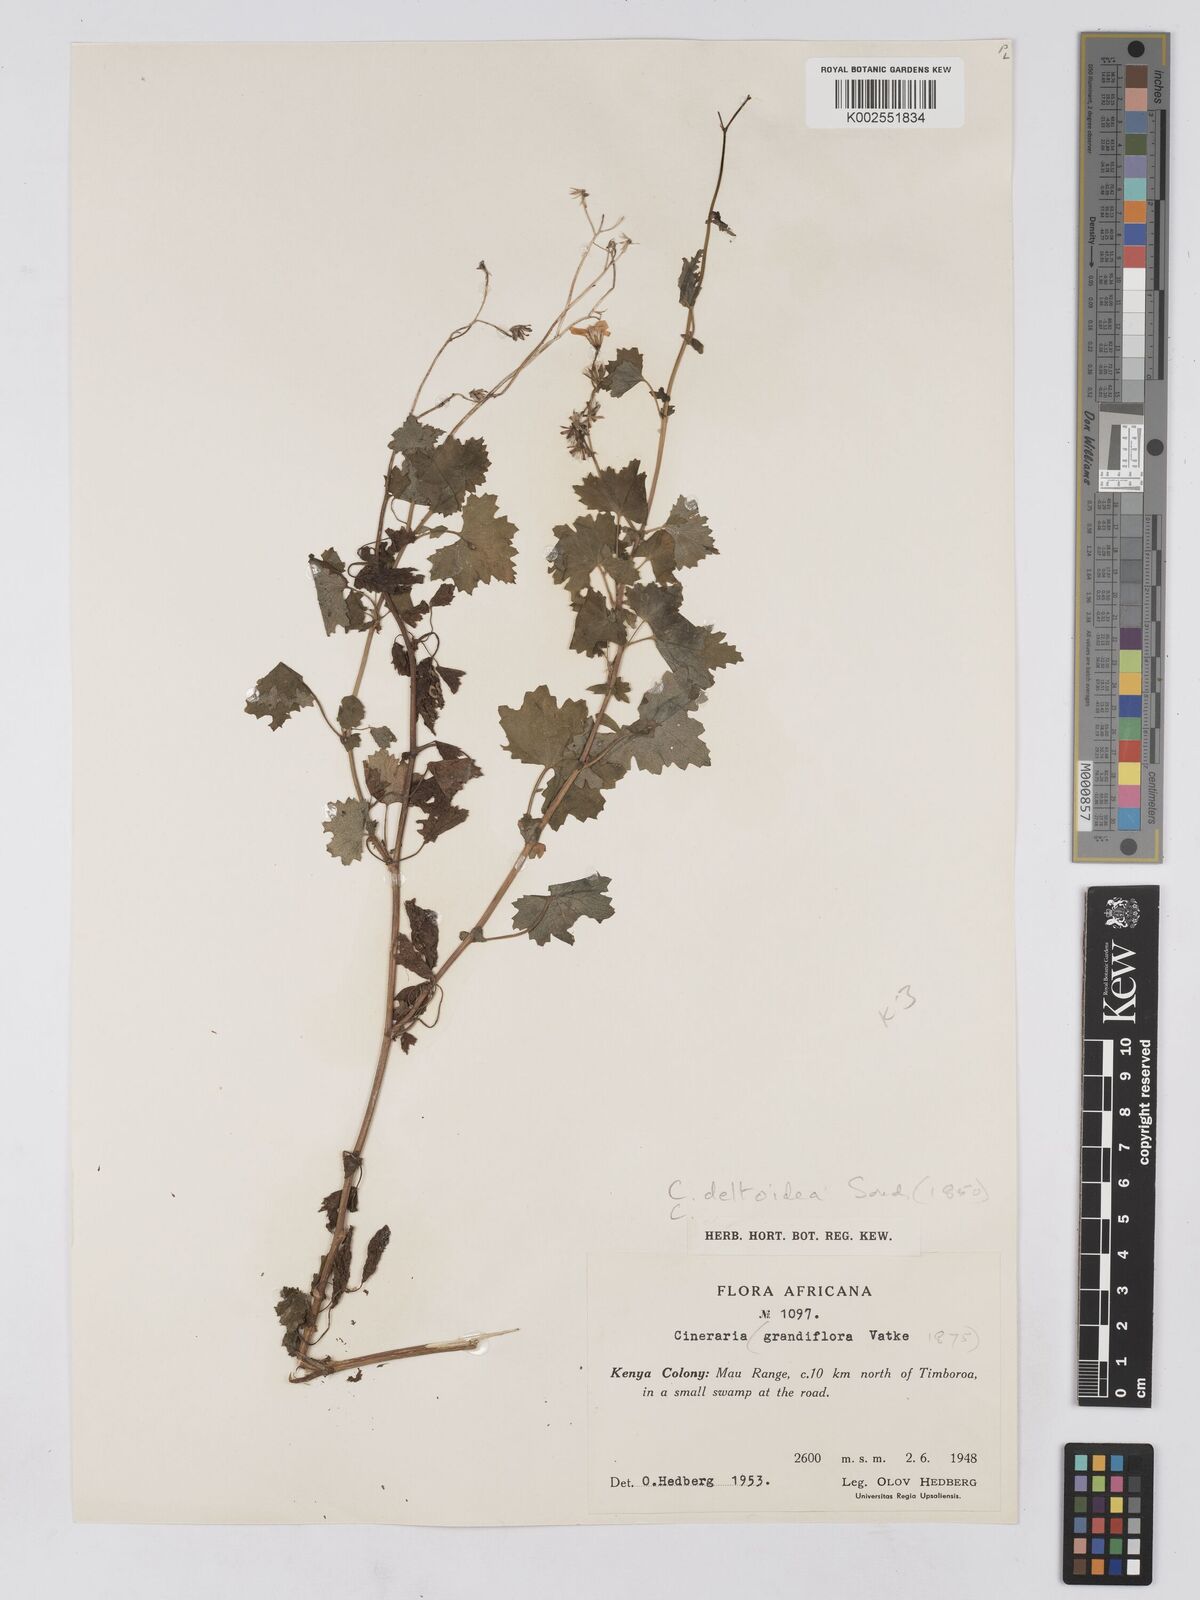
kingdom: Plantae
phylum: Tracheophyta
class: Magnoliopsida
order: Asterales
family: Asteraceae
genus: Cineraria
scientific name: Cineraria deltoidea
